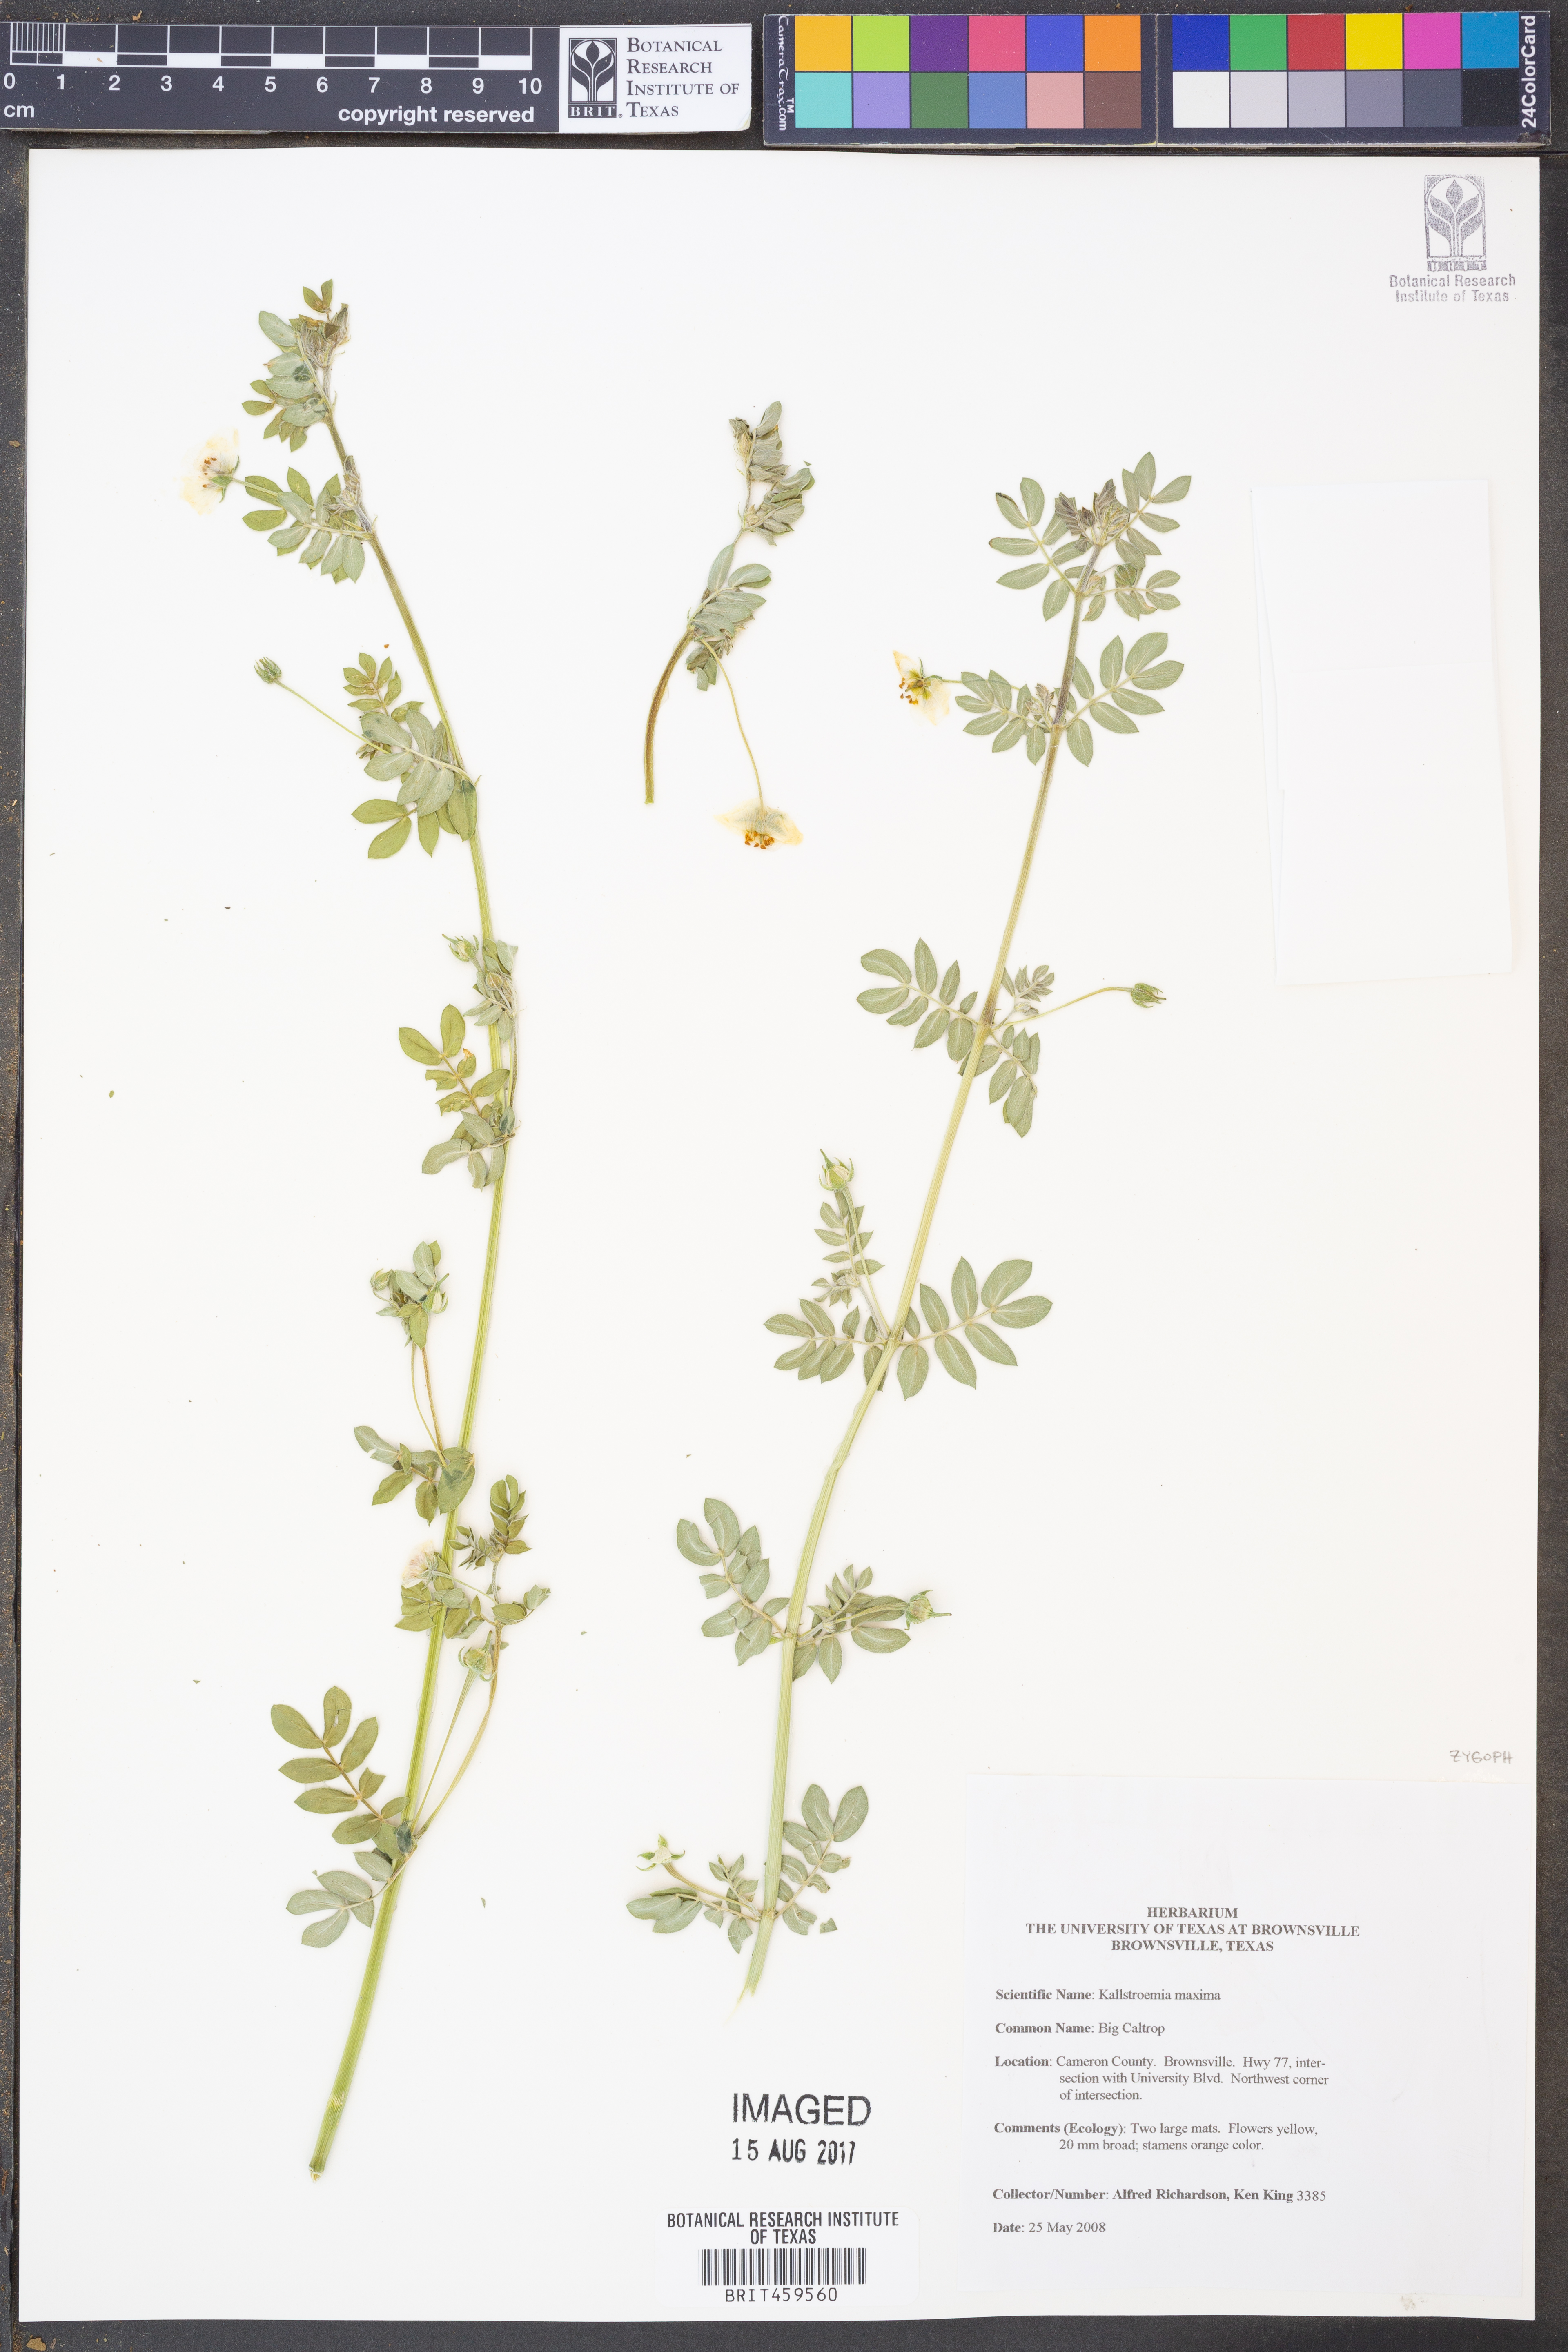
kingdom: Plantae
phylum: Tracheophyta
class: Magnoliopsida
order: Zygophyllales
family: Zygophyllaceae
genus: Kallstroemia
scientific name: Kallstroemia maxima
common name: Big caltropa
